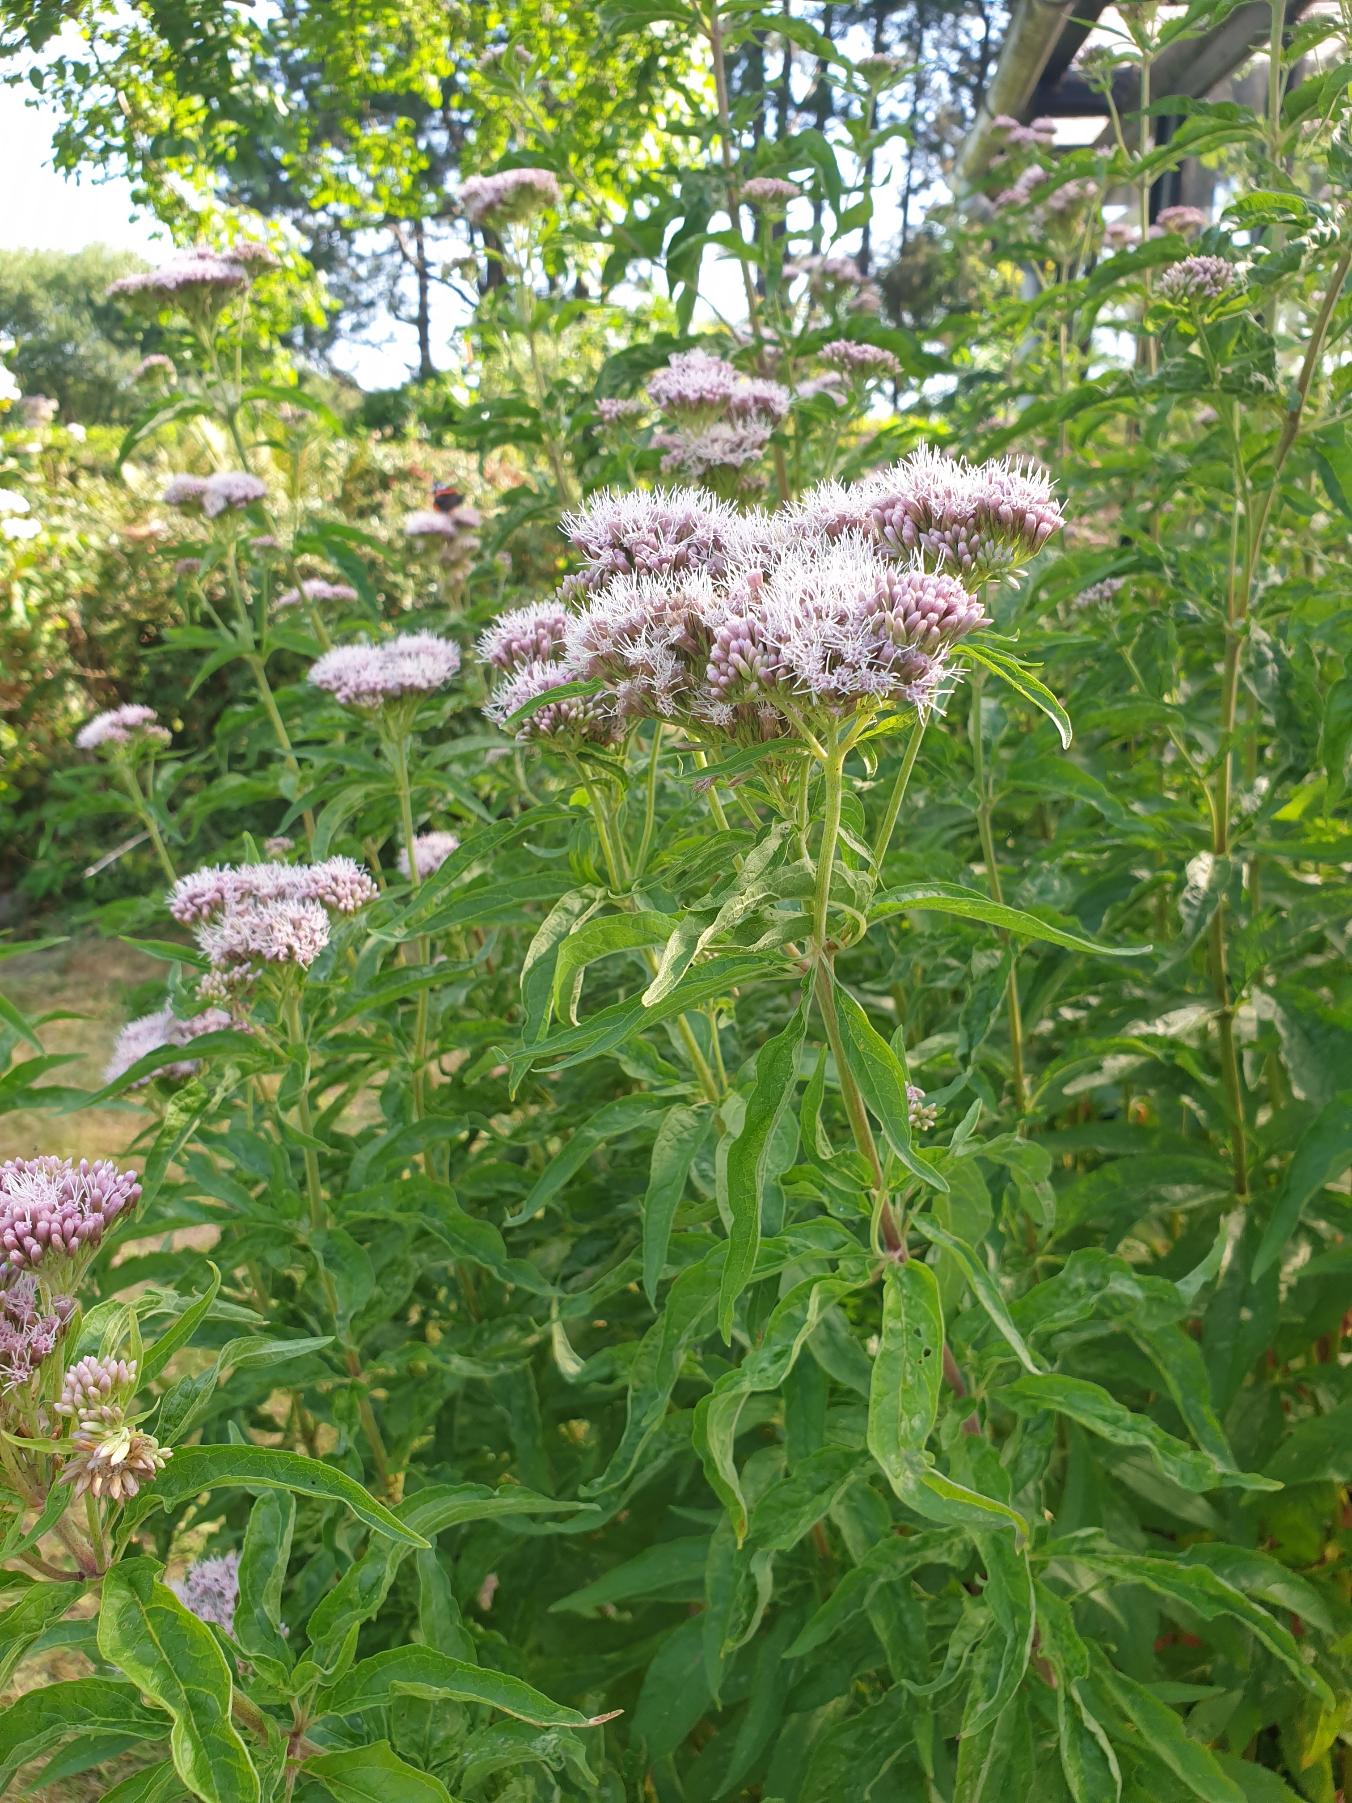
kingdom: Plantae
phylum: Tracheophyta
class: Magnoliopsida
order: Asterales
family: Asteraceae
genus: Eupatorium
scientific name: Eupatorium cannabinum
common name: Hjortetrøst
